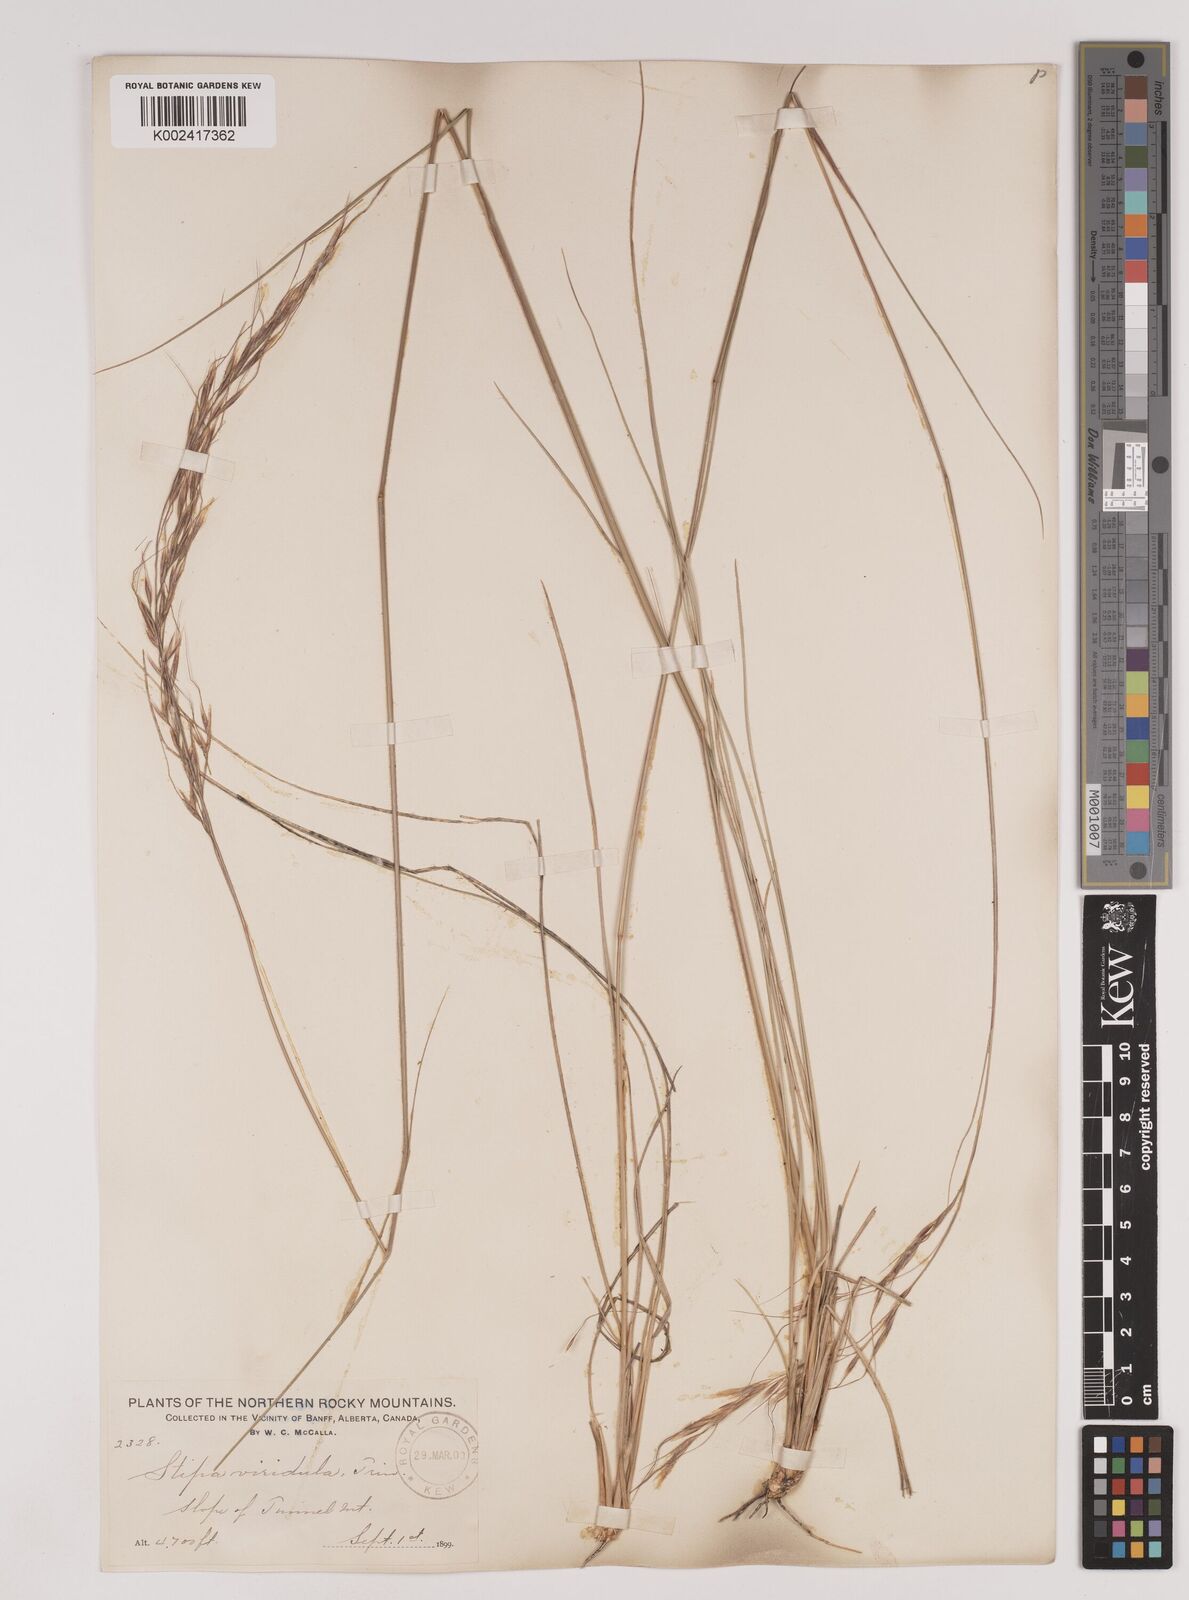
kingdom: Plantae
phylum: Tracheophyta
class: Liliopsida
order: Poales
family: Poaceae
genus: Nassella
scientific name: Nassella viridula
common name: Green needlegrass
